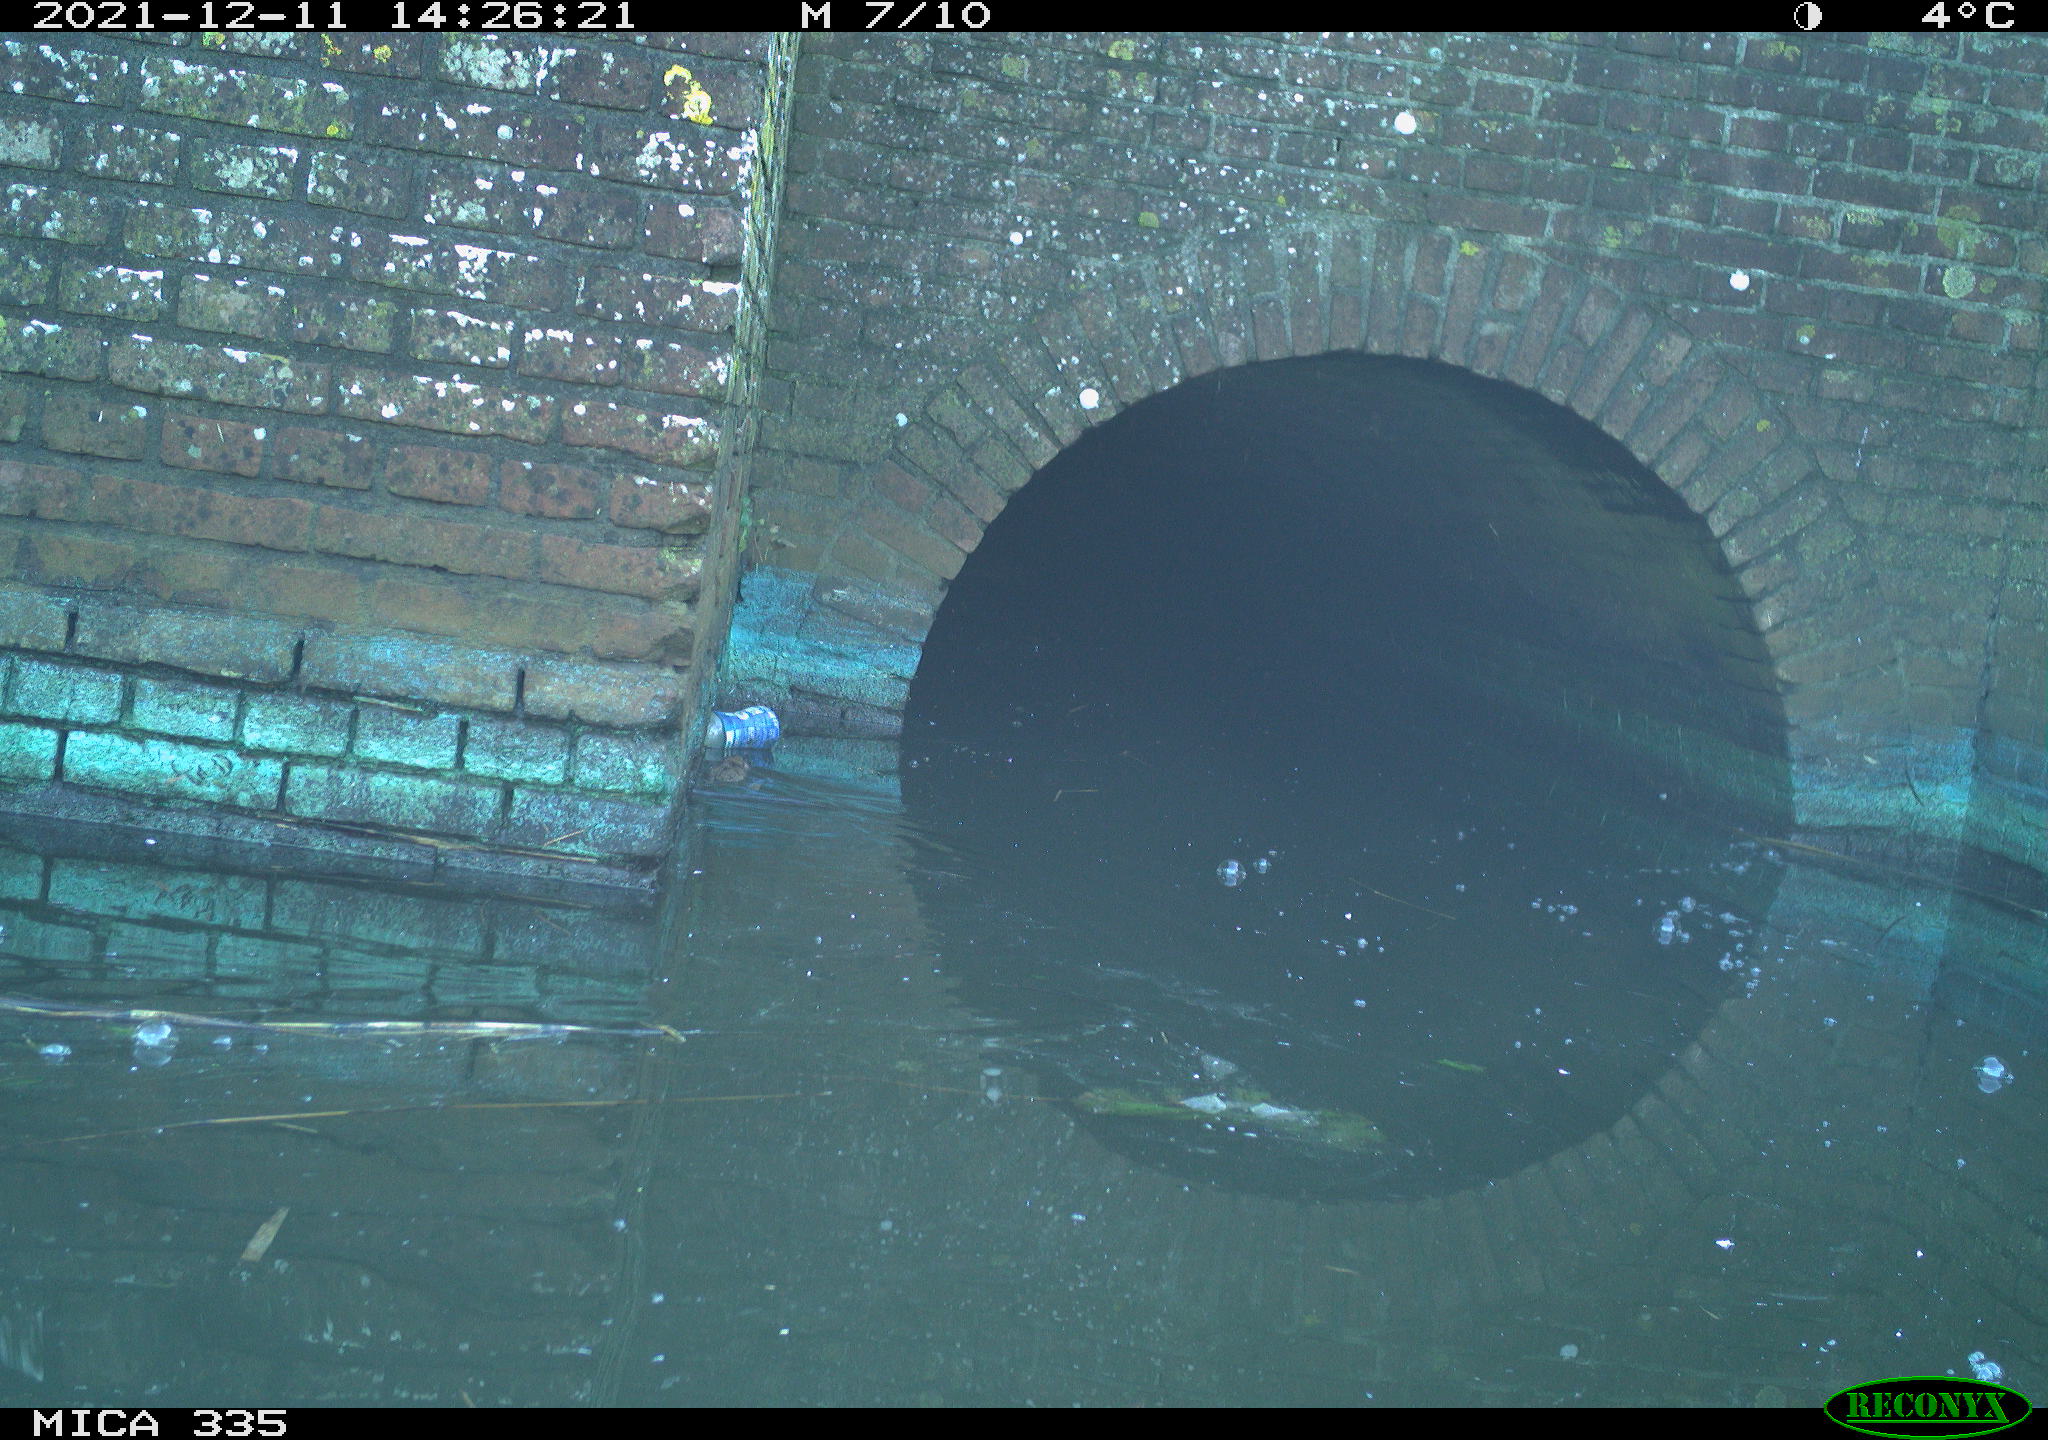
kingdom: Animalia
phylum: Chordata
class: Mammalia
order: Rodentia
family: Muridae
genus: Rattus
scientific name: Rattus norvegicus
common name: Brown rat
